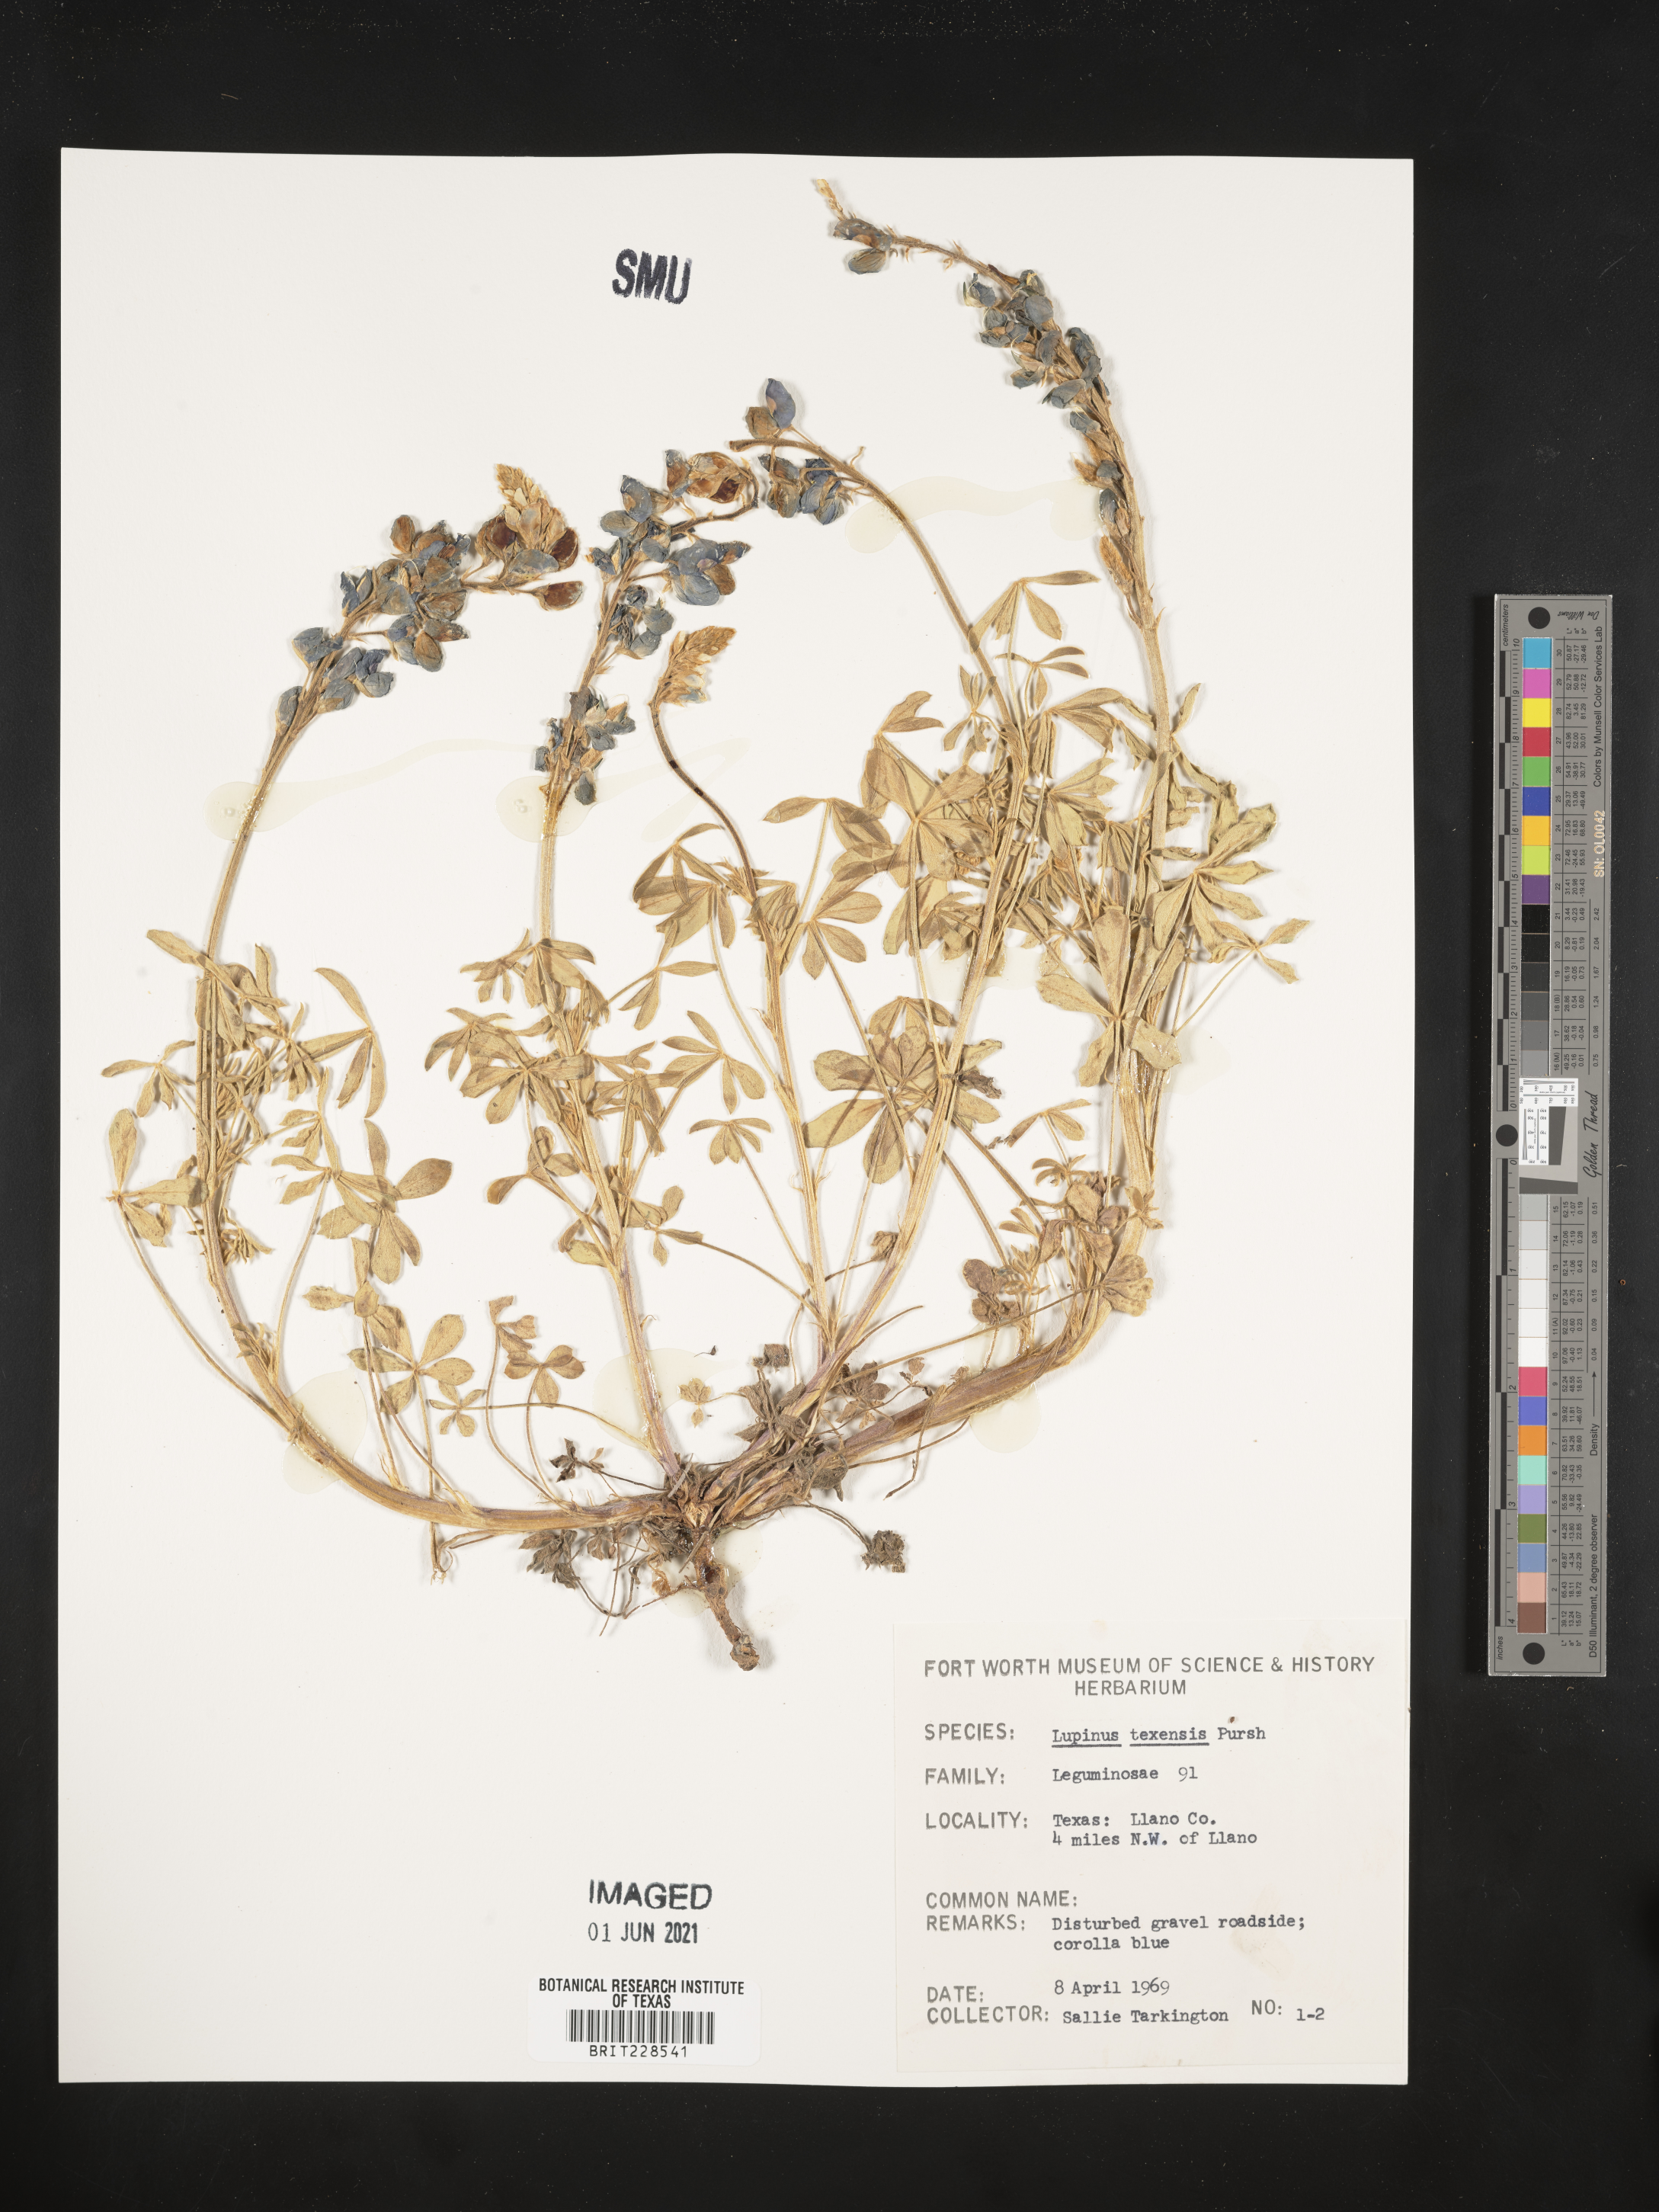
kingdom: Plantae
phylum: Tracheophyta
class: Magnoliopsida
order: Fabales
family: Fabaceae
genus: Lupinus
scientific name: Lupinus texensis
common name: Texas bluebonnet
